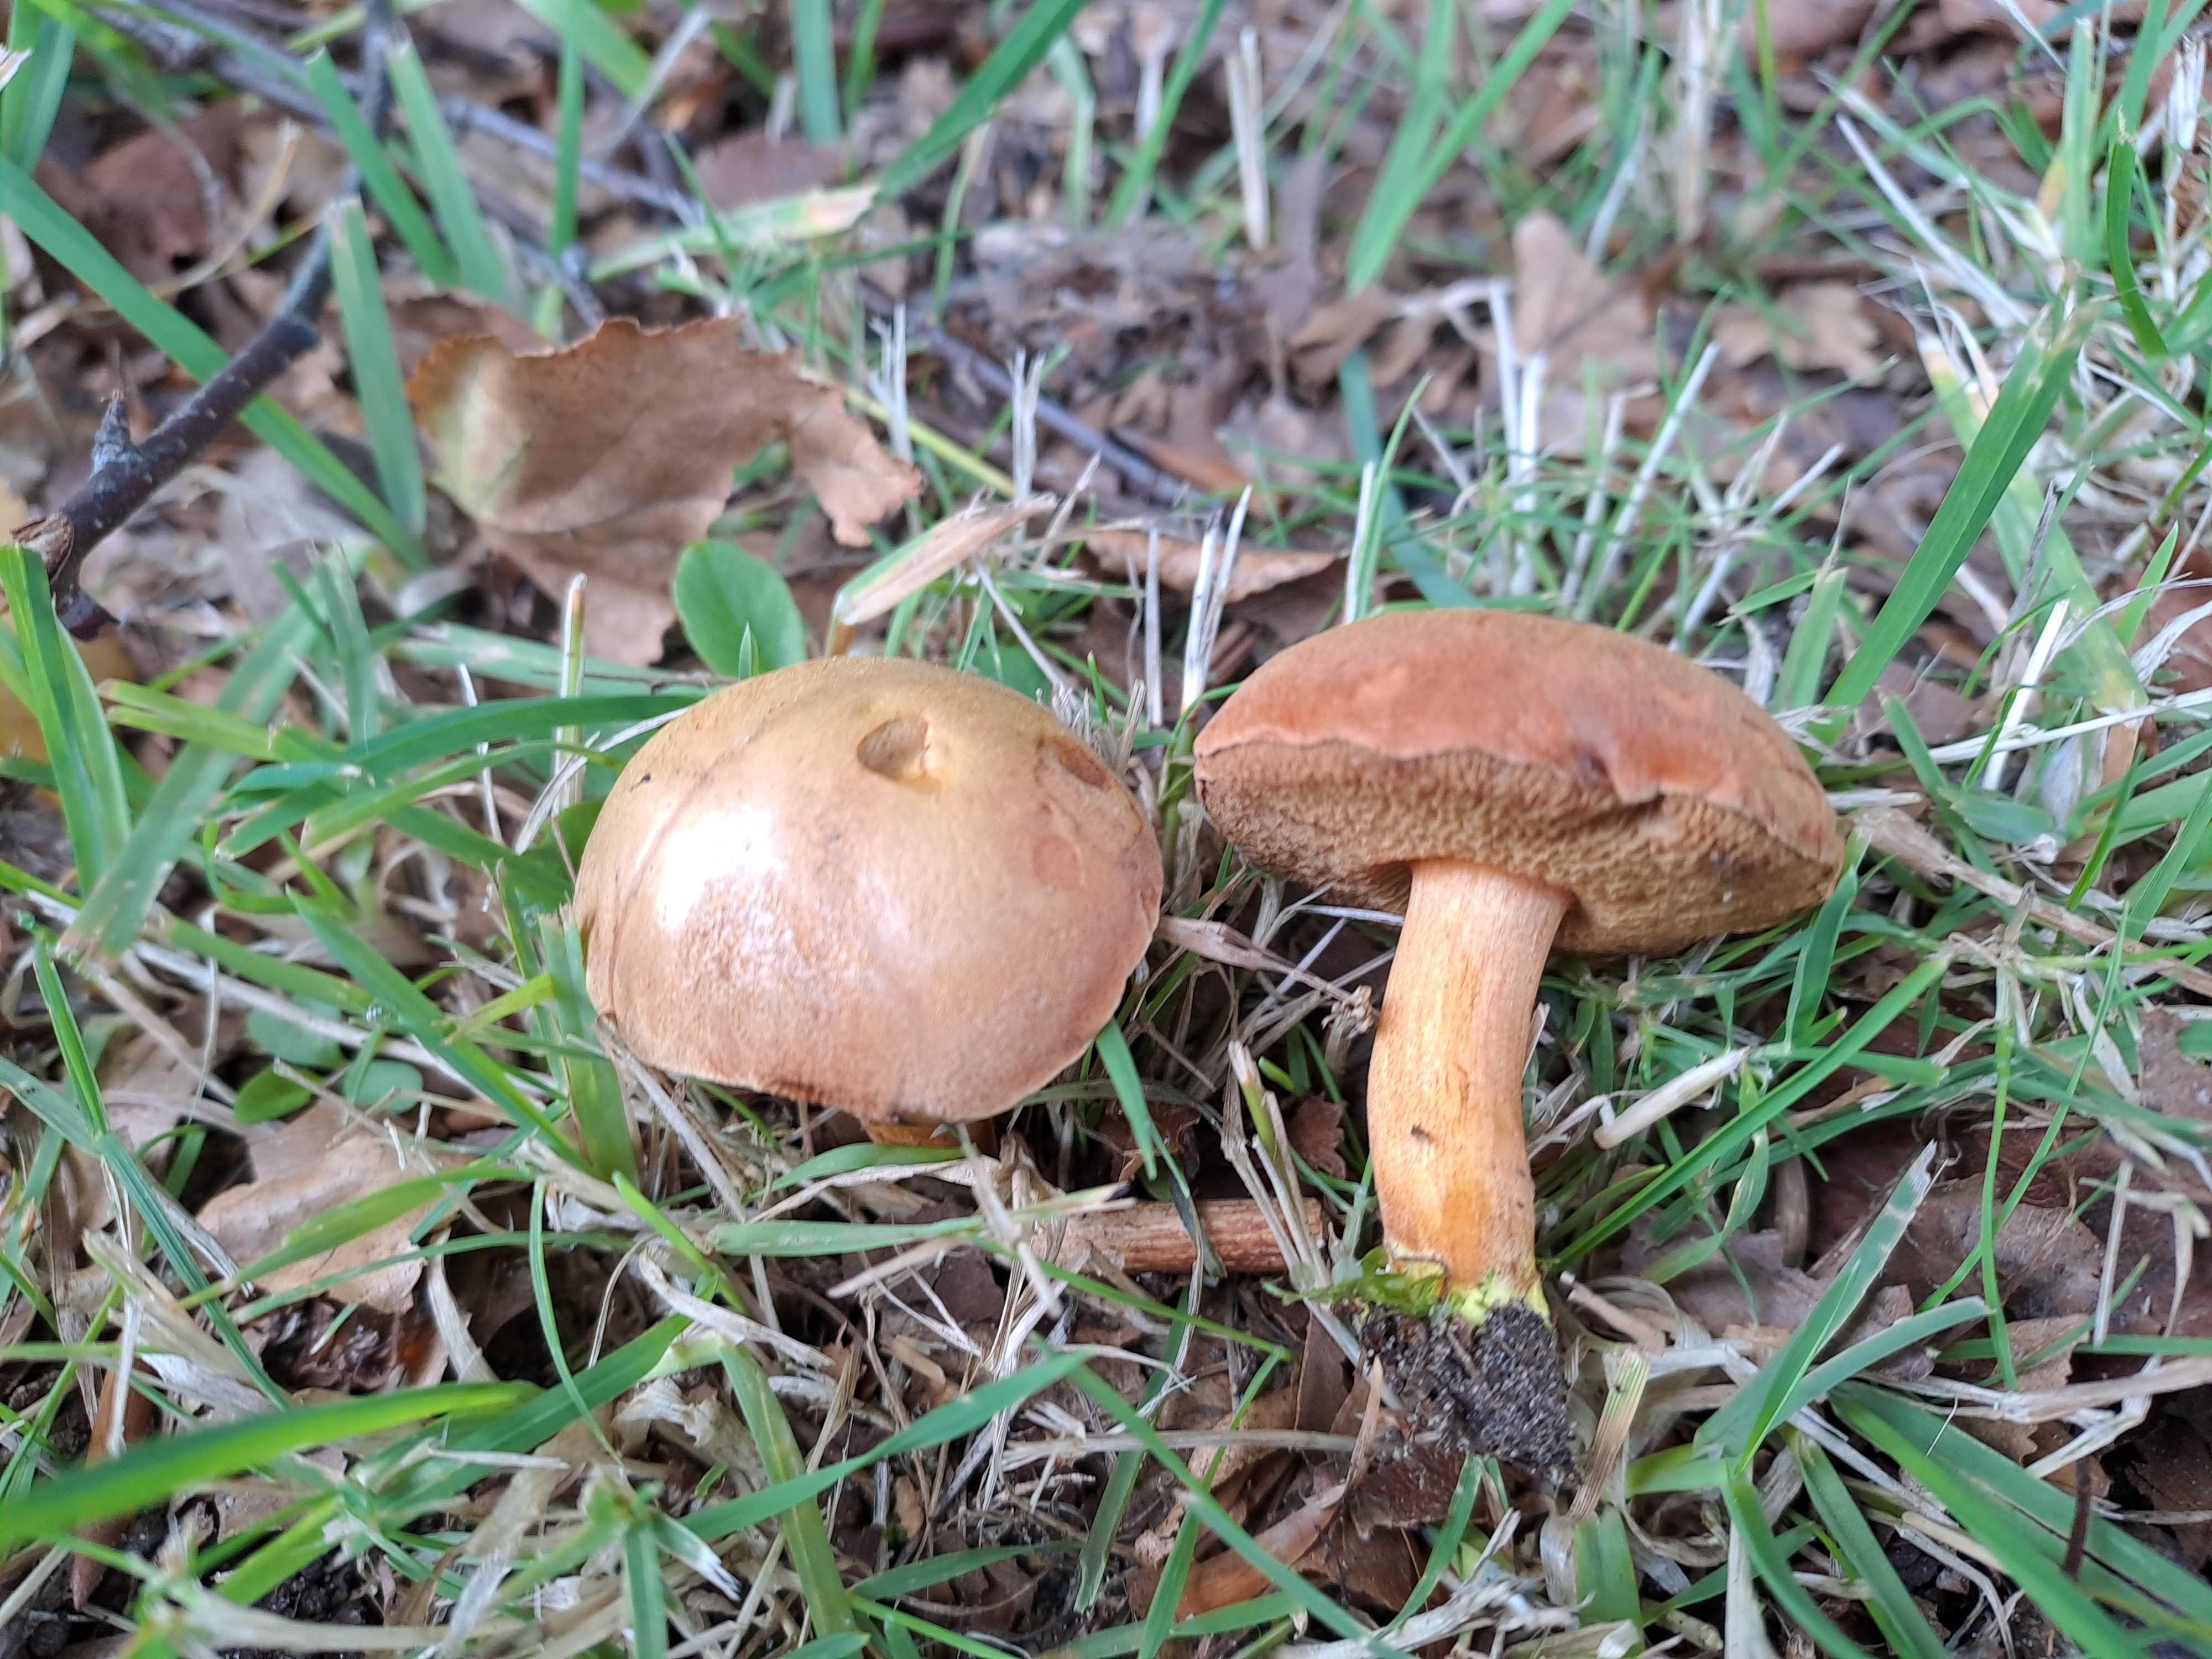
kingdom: Fungi
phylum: Basidiomycota
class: Agaricomycetes
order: Boletales
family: Boletaceae
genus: Chalciporus
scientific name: Chalciporus piperatus
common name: peberrørhat
